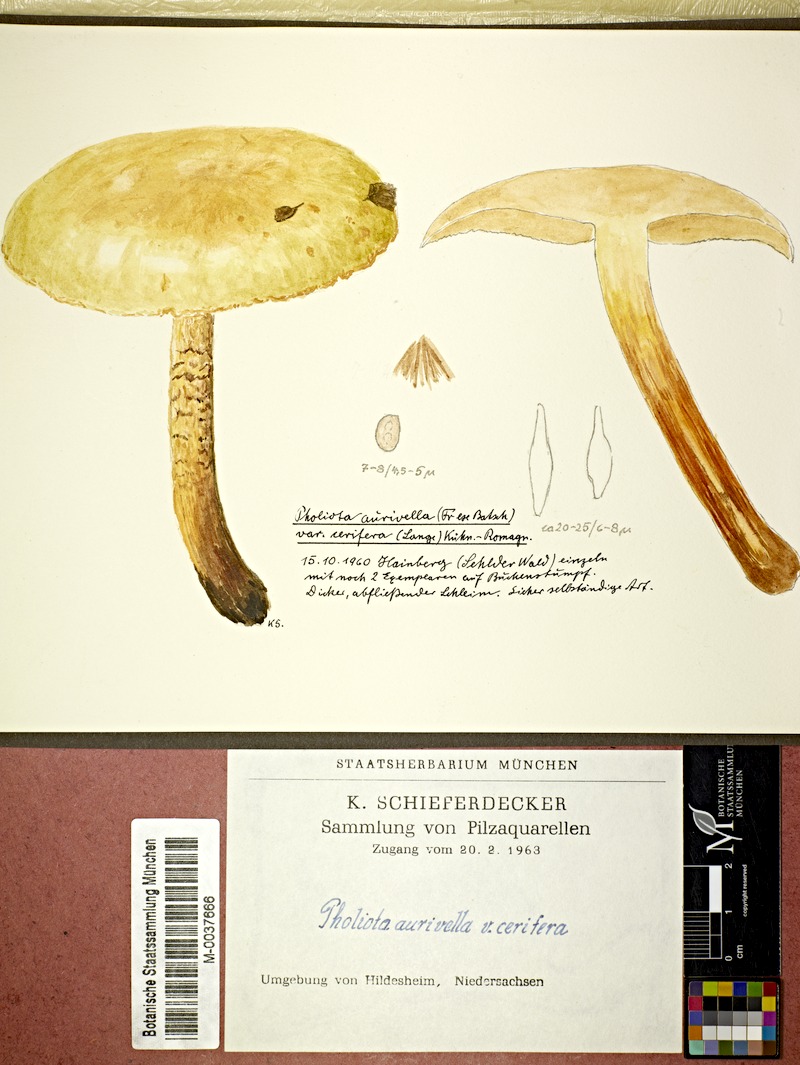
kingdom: Plantae
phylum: Tracheophyta
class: Magnoliopsida
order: Fagales
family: Fagaceae
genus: Fagus
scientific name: Fagus
